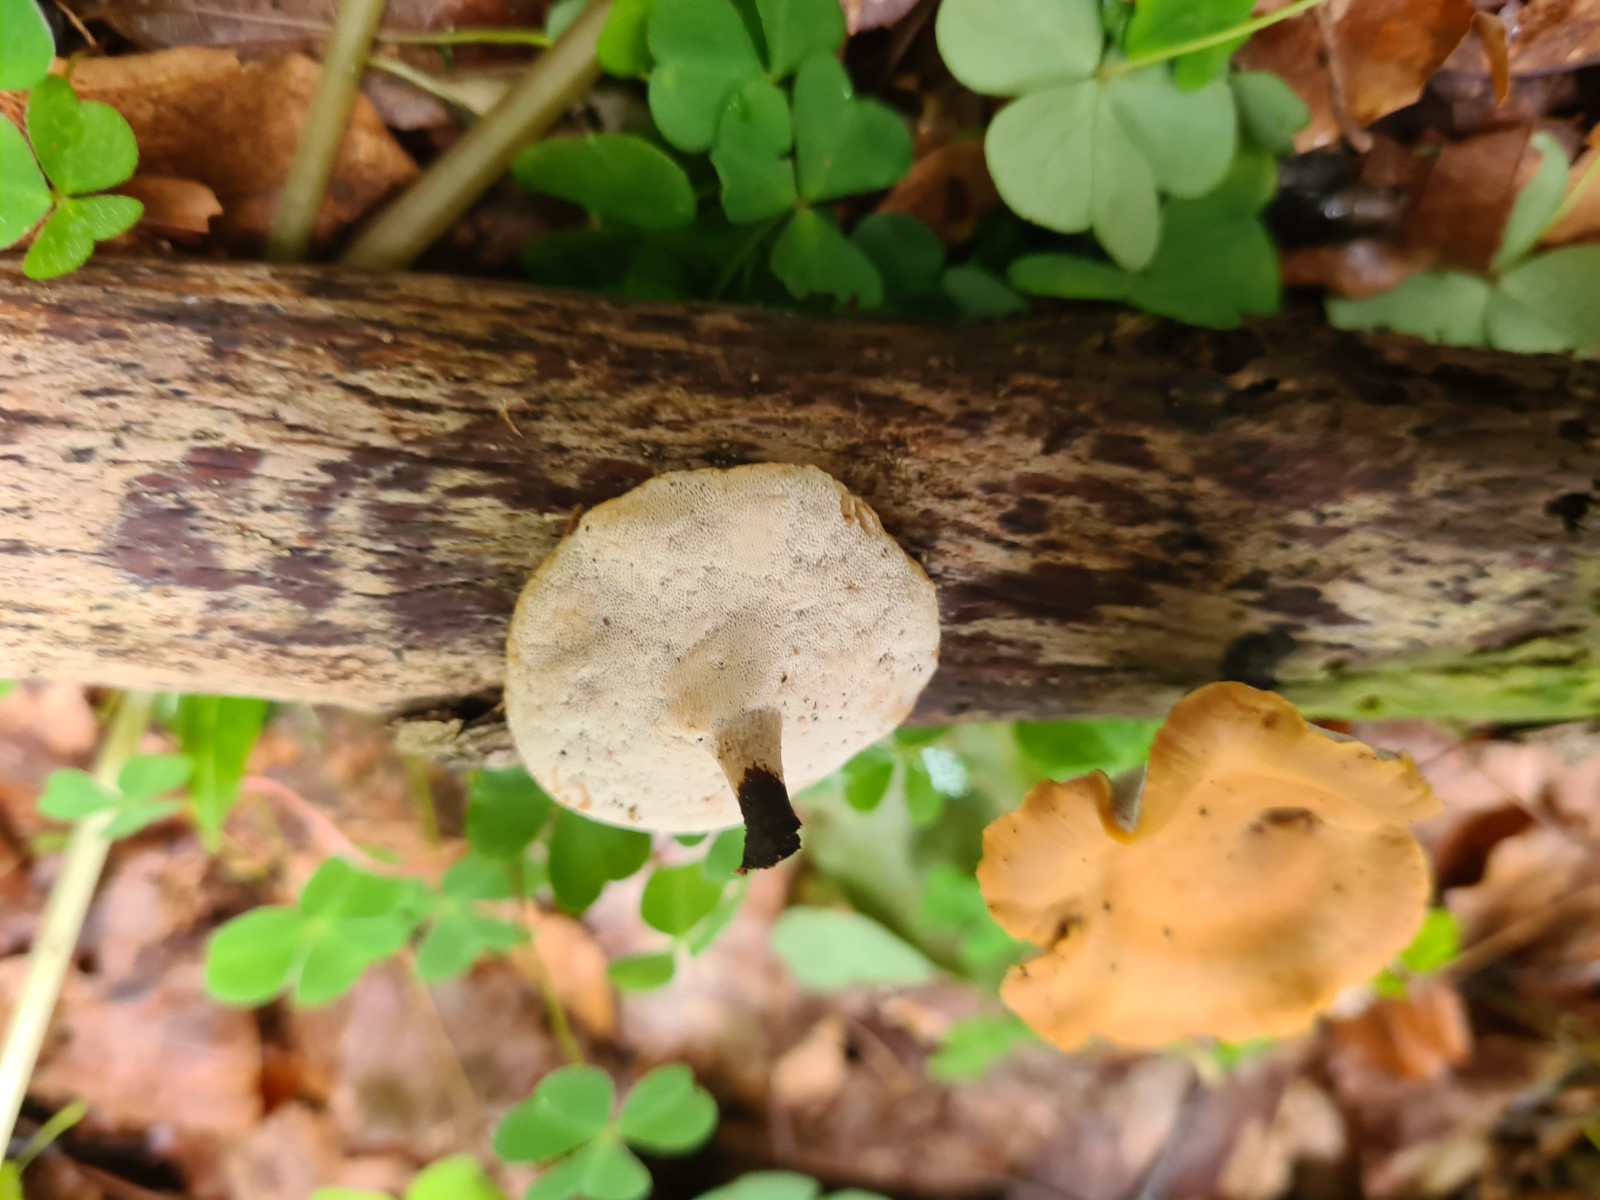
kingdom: Fungi
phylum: Basidiomycota
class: Agaricomycetes
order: Polyporales
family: Polyporaceae
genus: Cerioporus
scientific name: Cerioporus varius
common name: foranderlig stilkporesvamp
